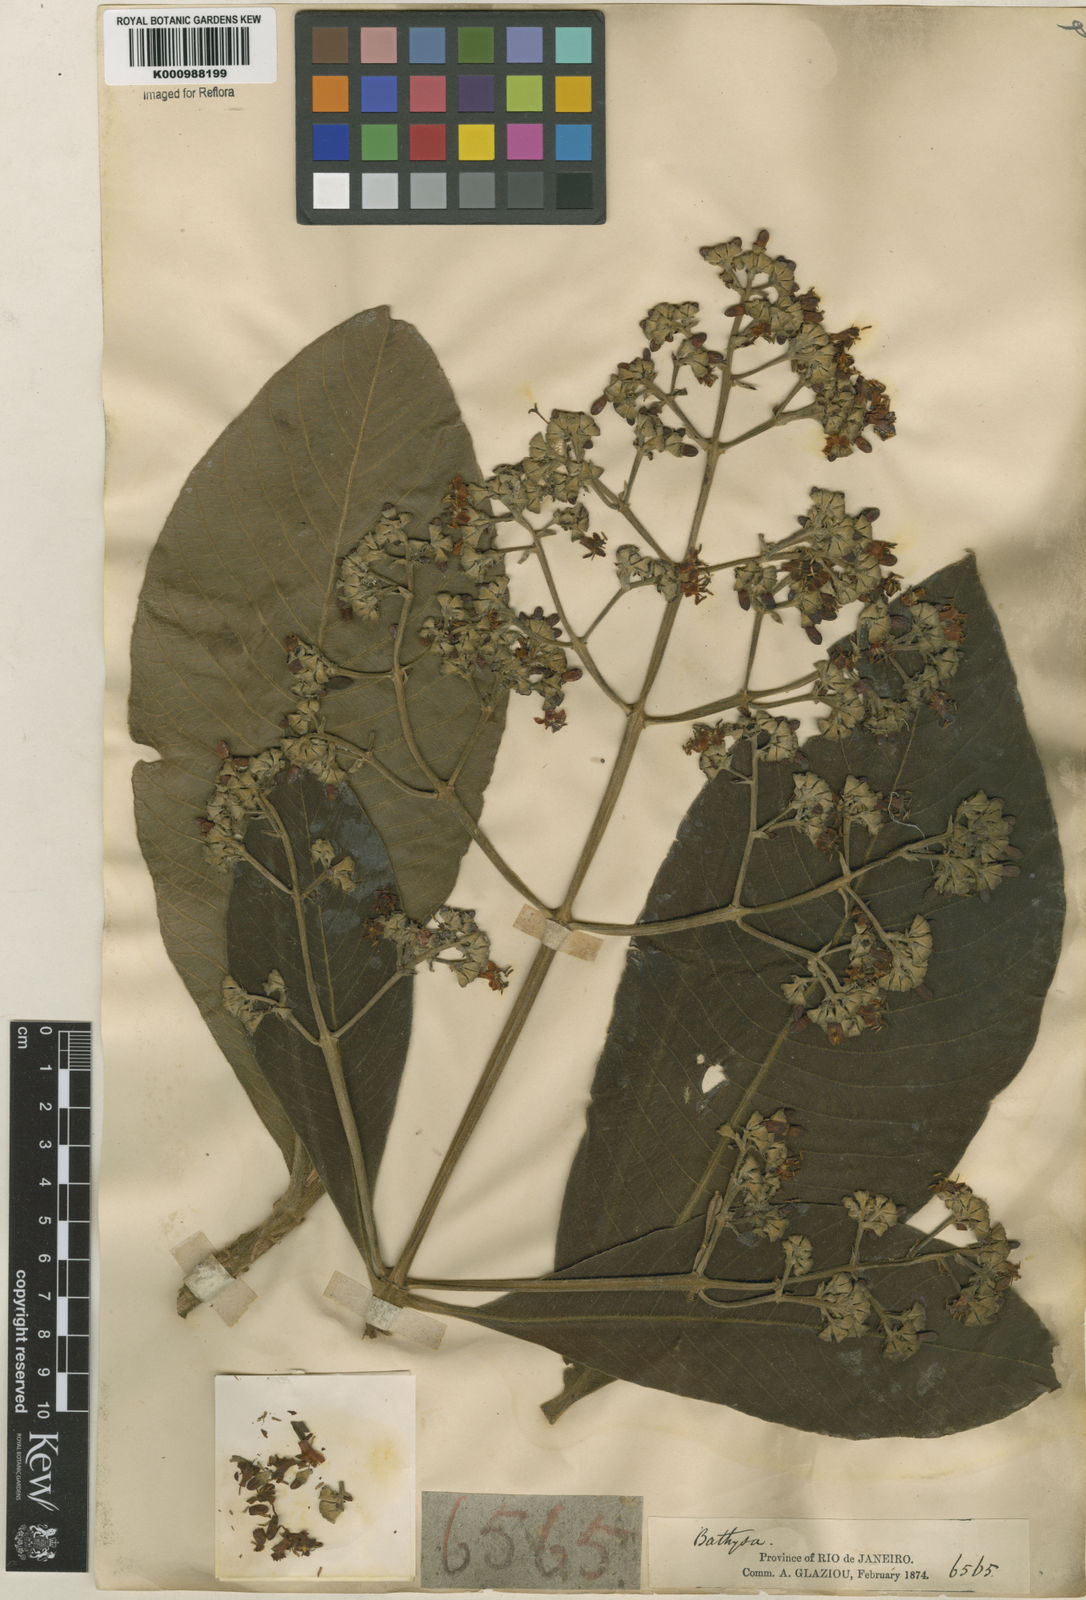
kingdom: Plantae
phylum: Tracheophyta
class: Magnoliopsida
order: Gentianales
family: Rubiaceae
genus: Schizocalyx
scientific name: Schizocalyx cuspidatus
